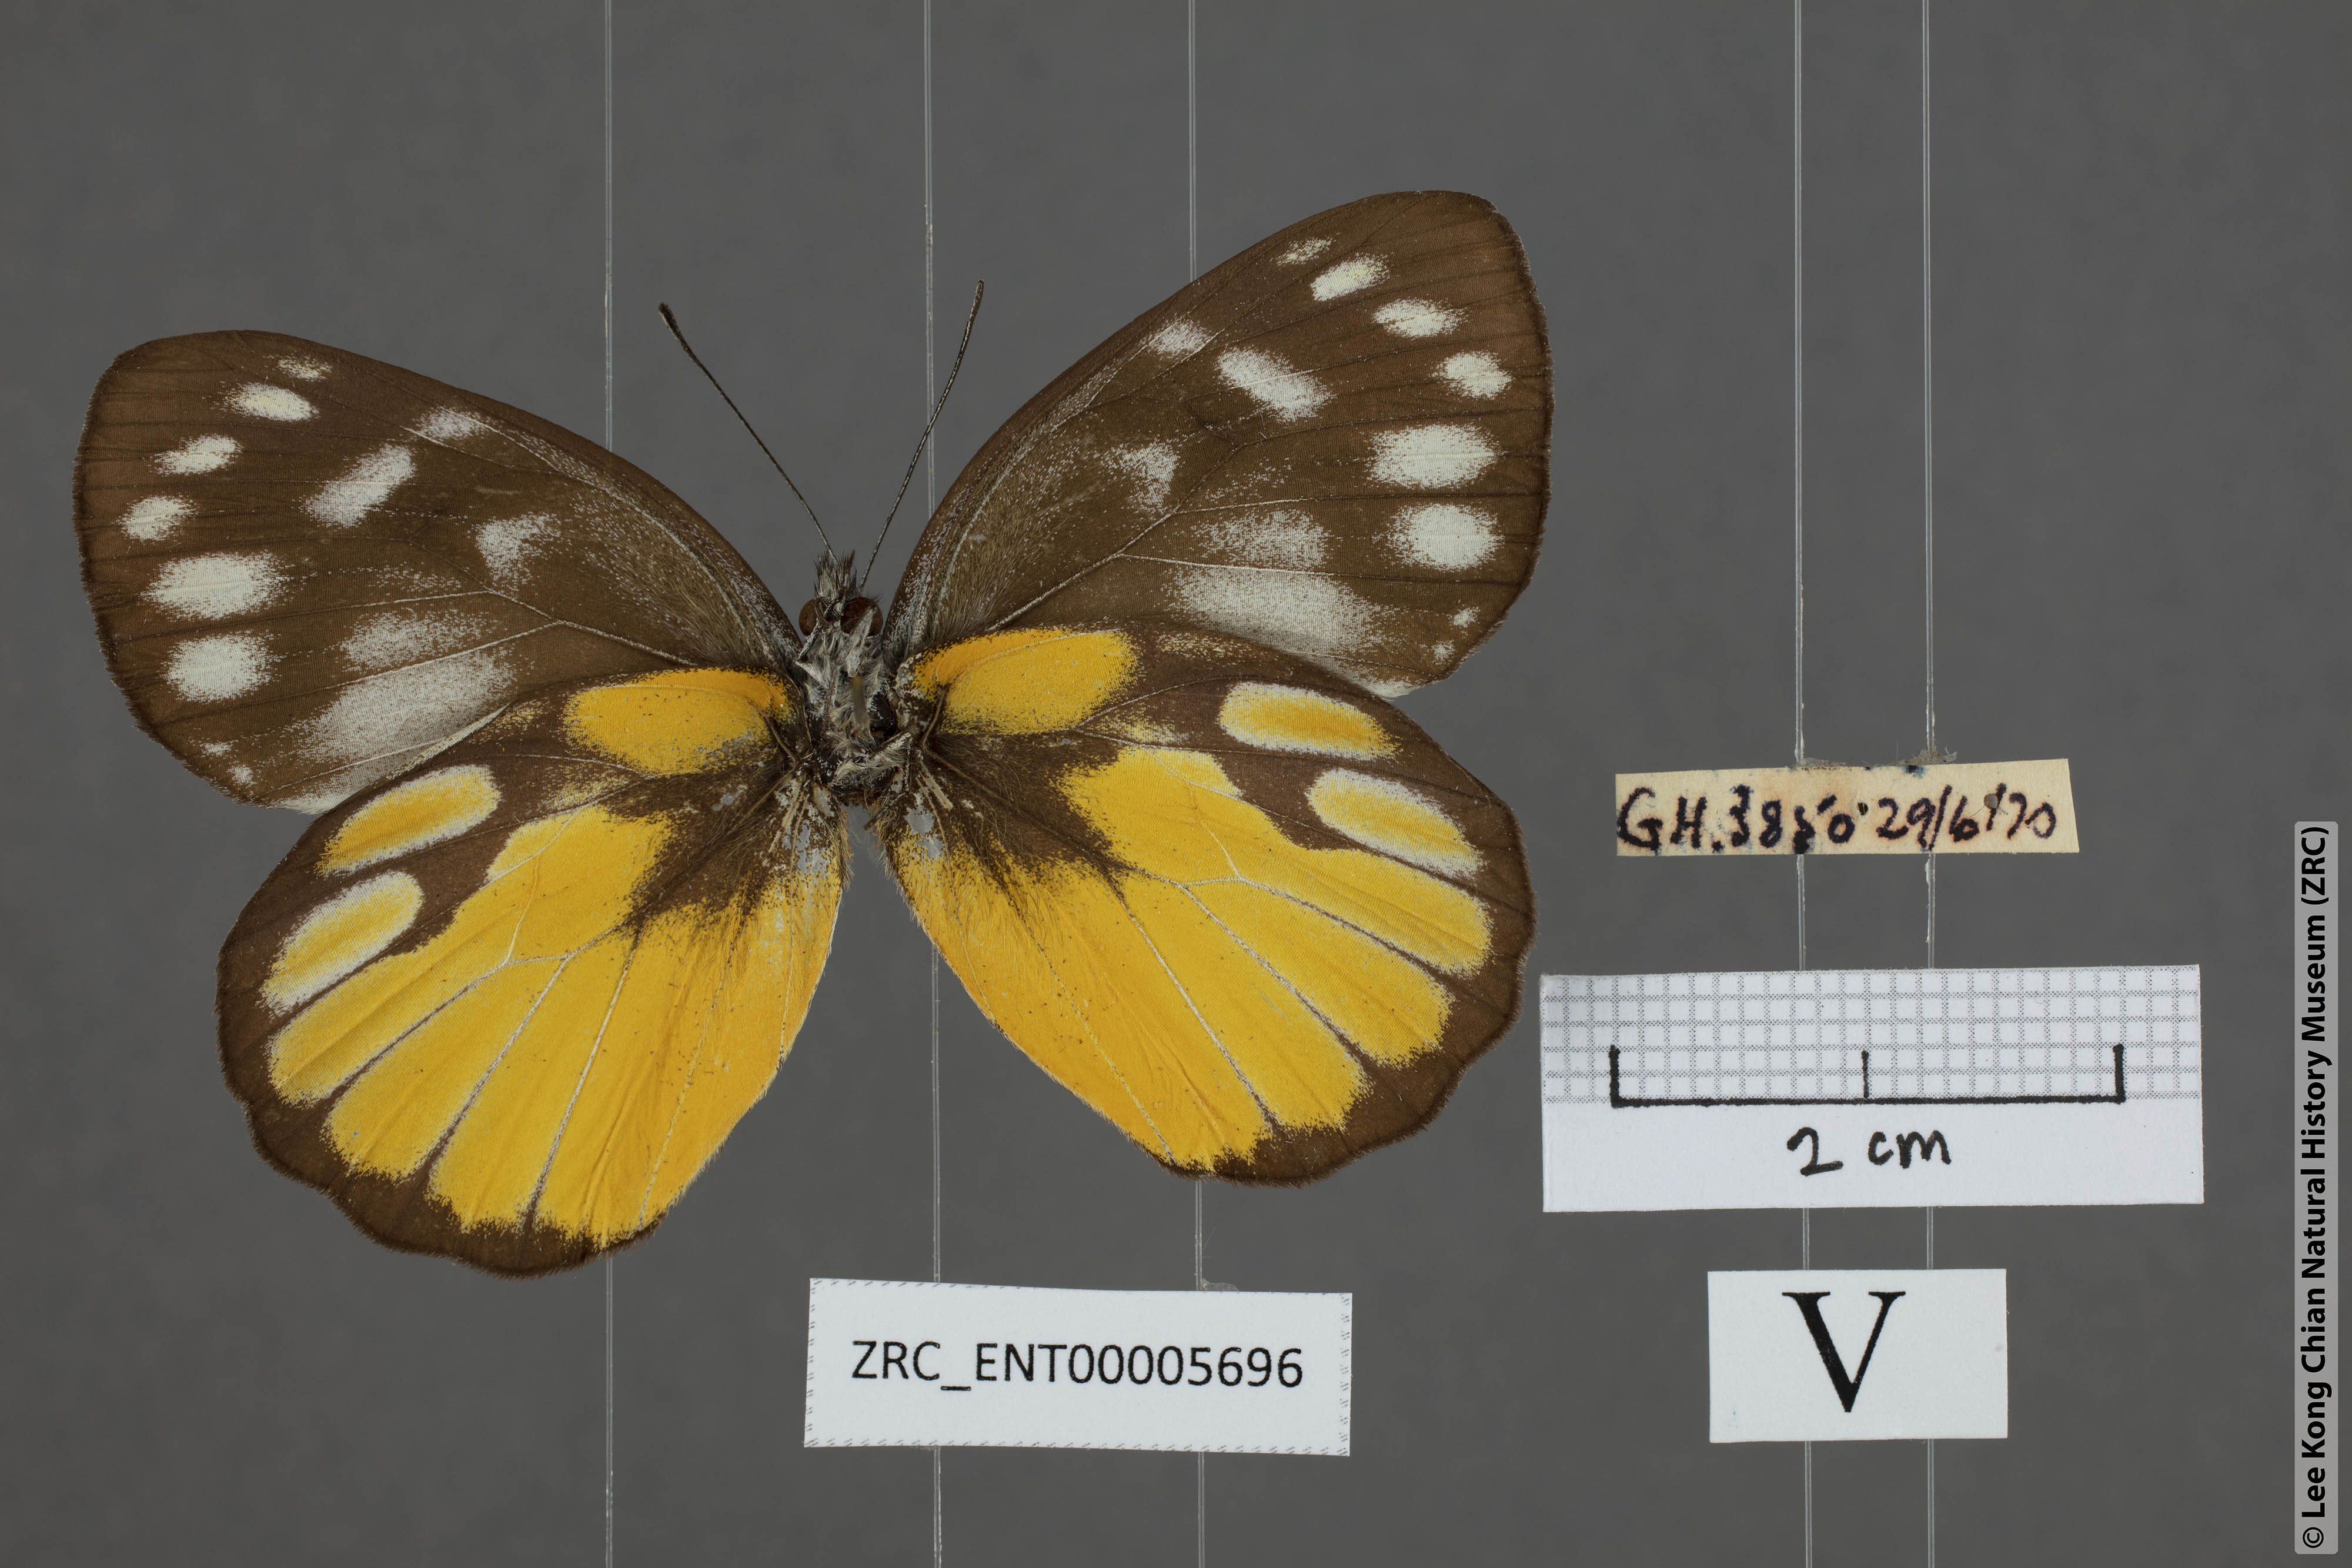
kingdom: Animalia
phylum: Arthropoda
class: Insecta
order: Lepidoptera
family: Pieridae
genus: Delias
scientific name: Delias georgina
